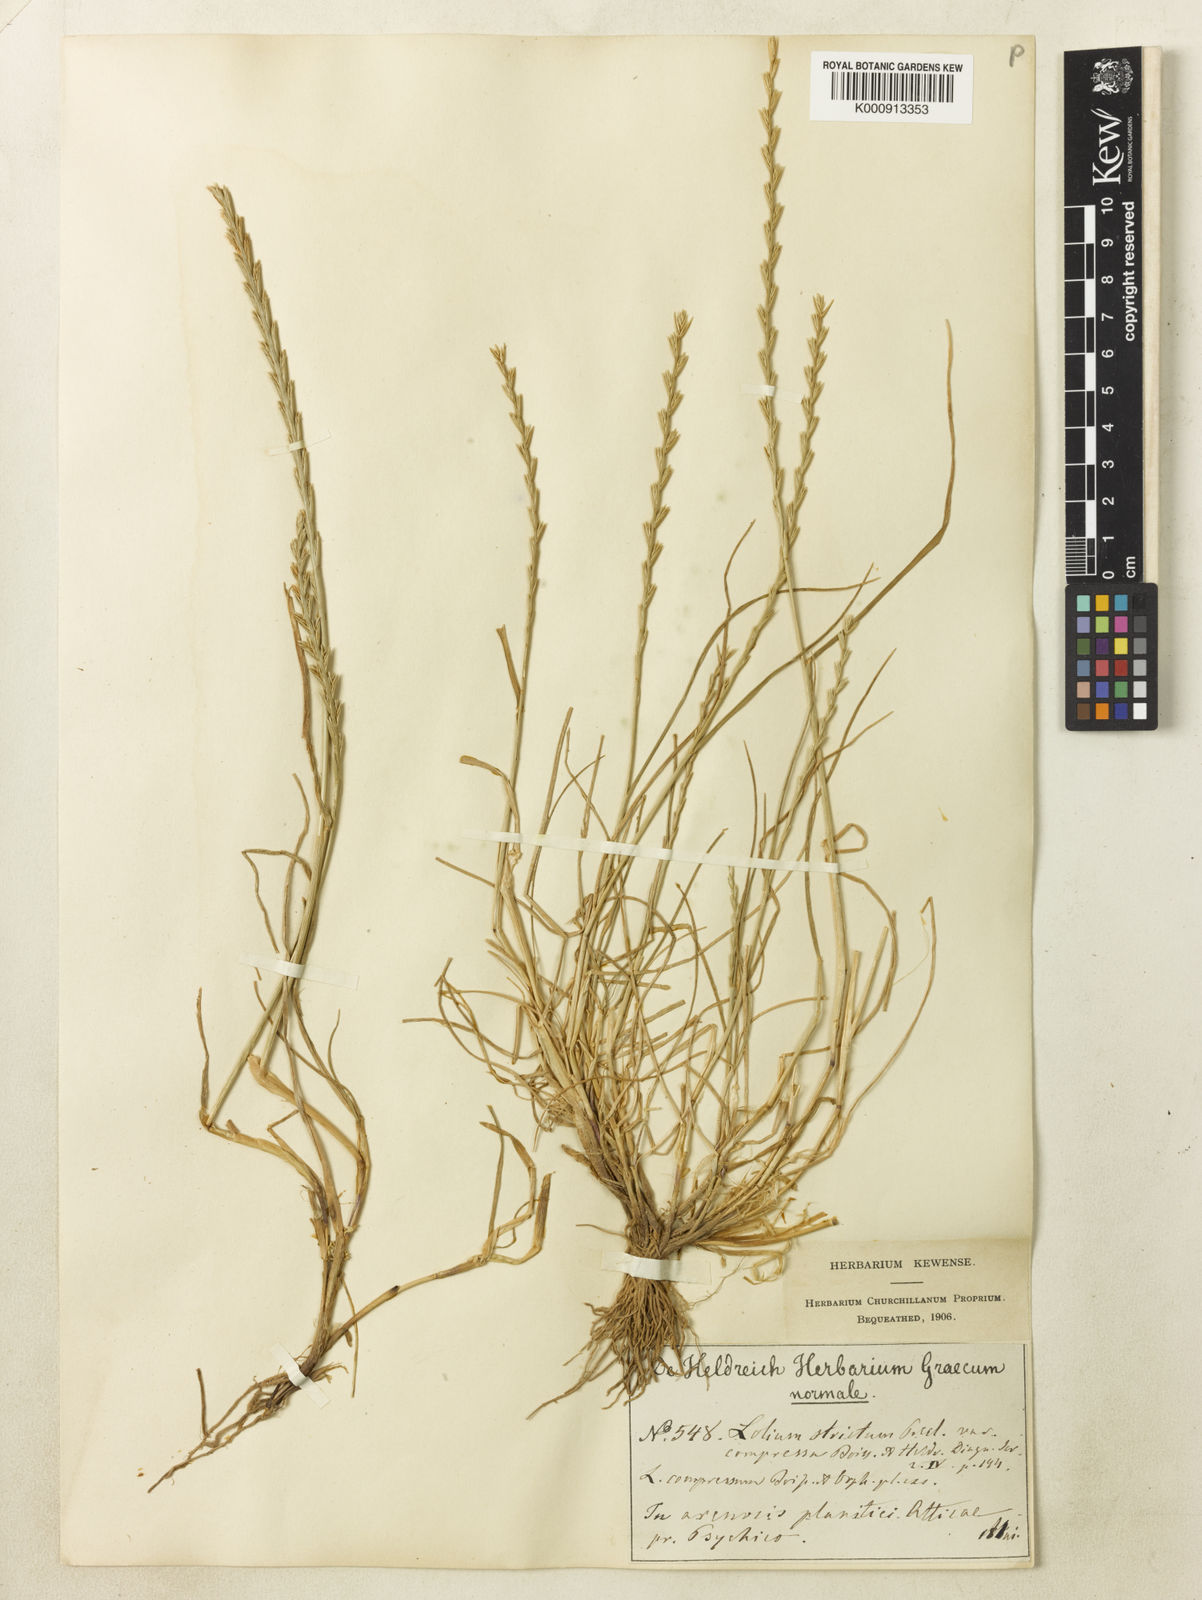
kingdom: Plantae
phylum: Tracheophyta
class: Liliopsida
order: Poales
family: Poaceae
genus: Lolium
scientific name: Lolium rigidum
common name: Wimmera ryegrass
